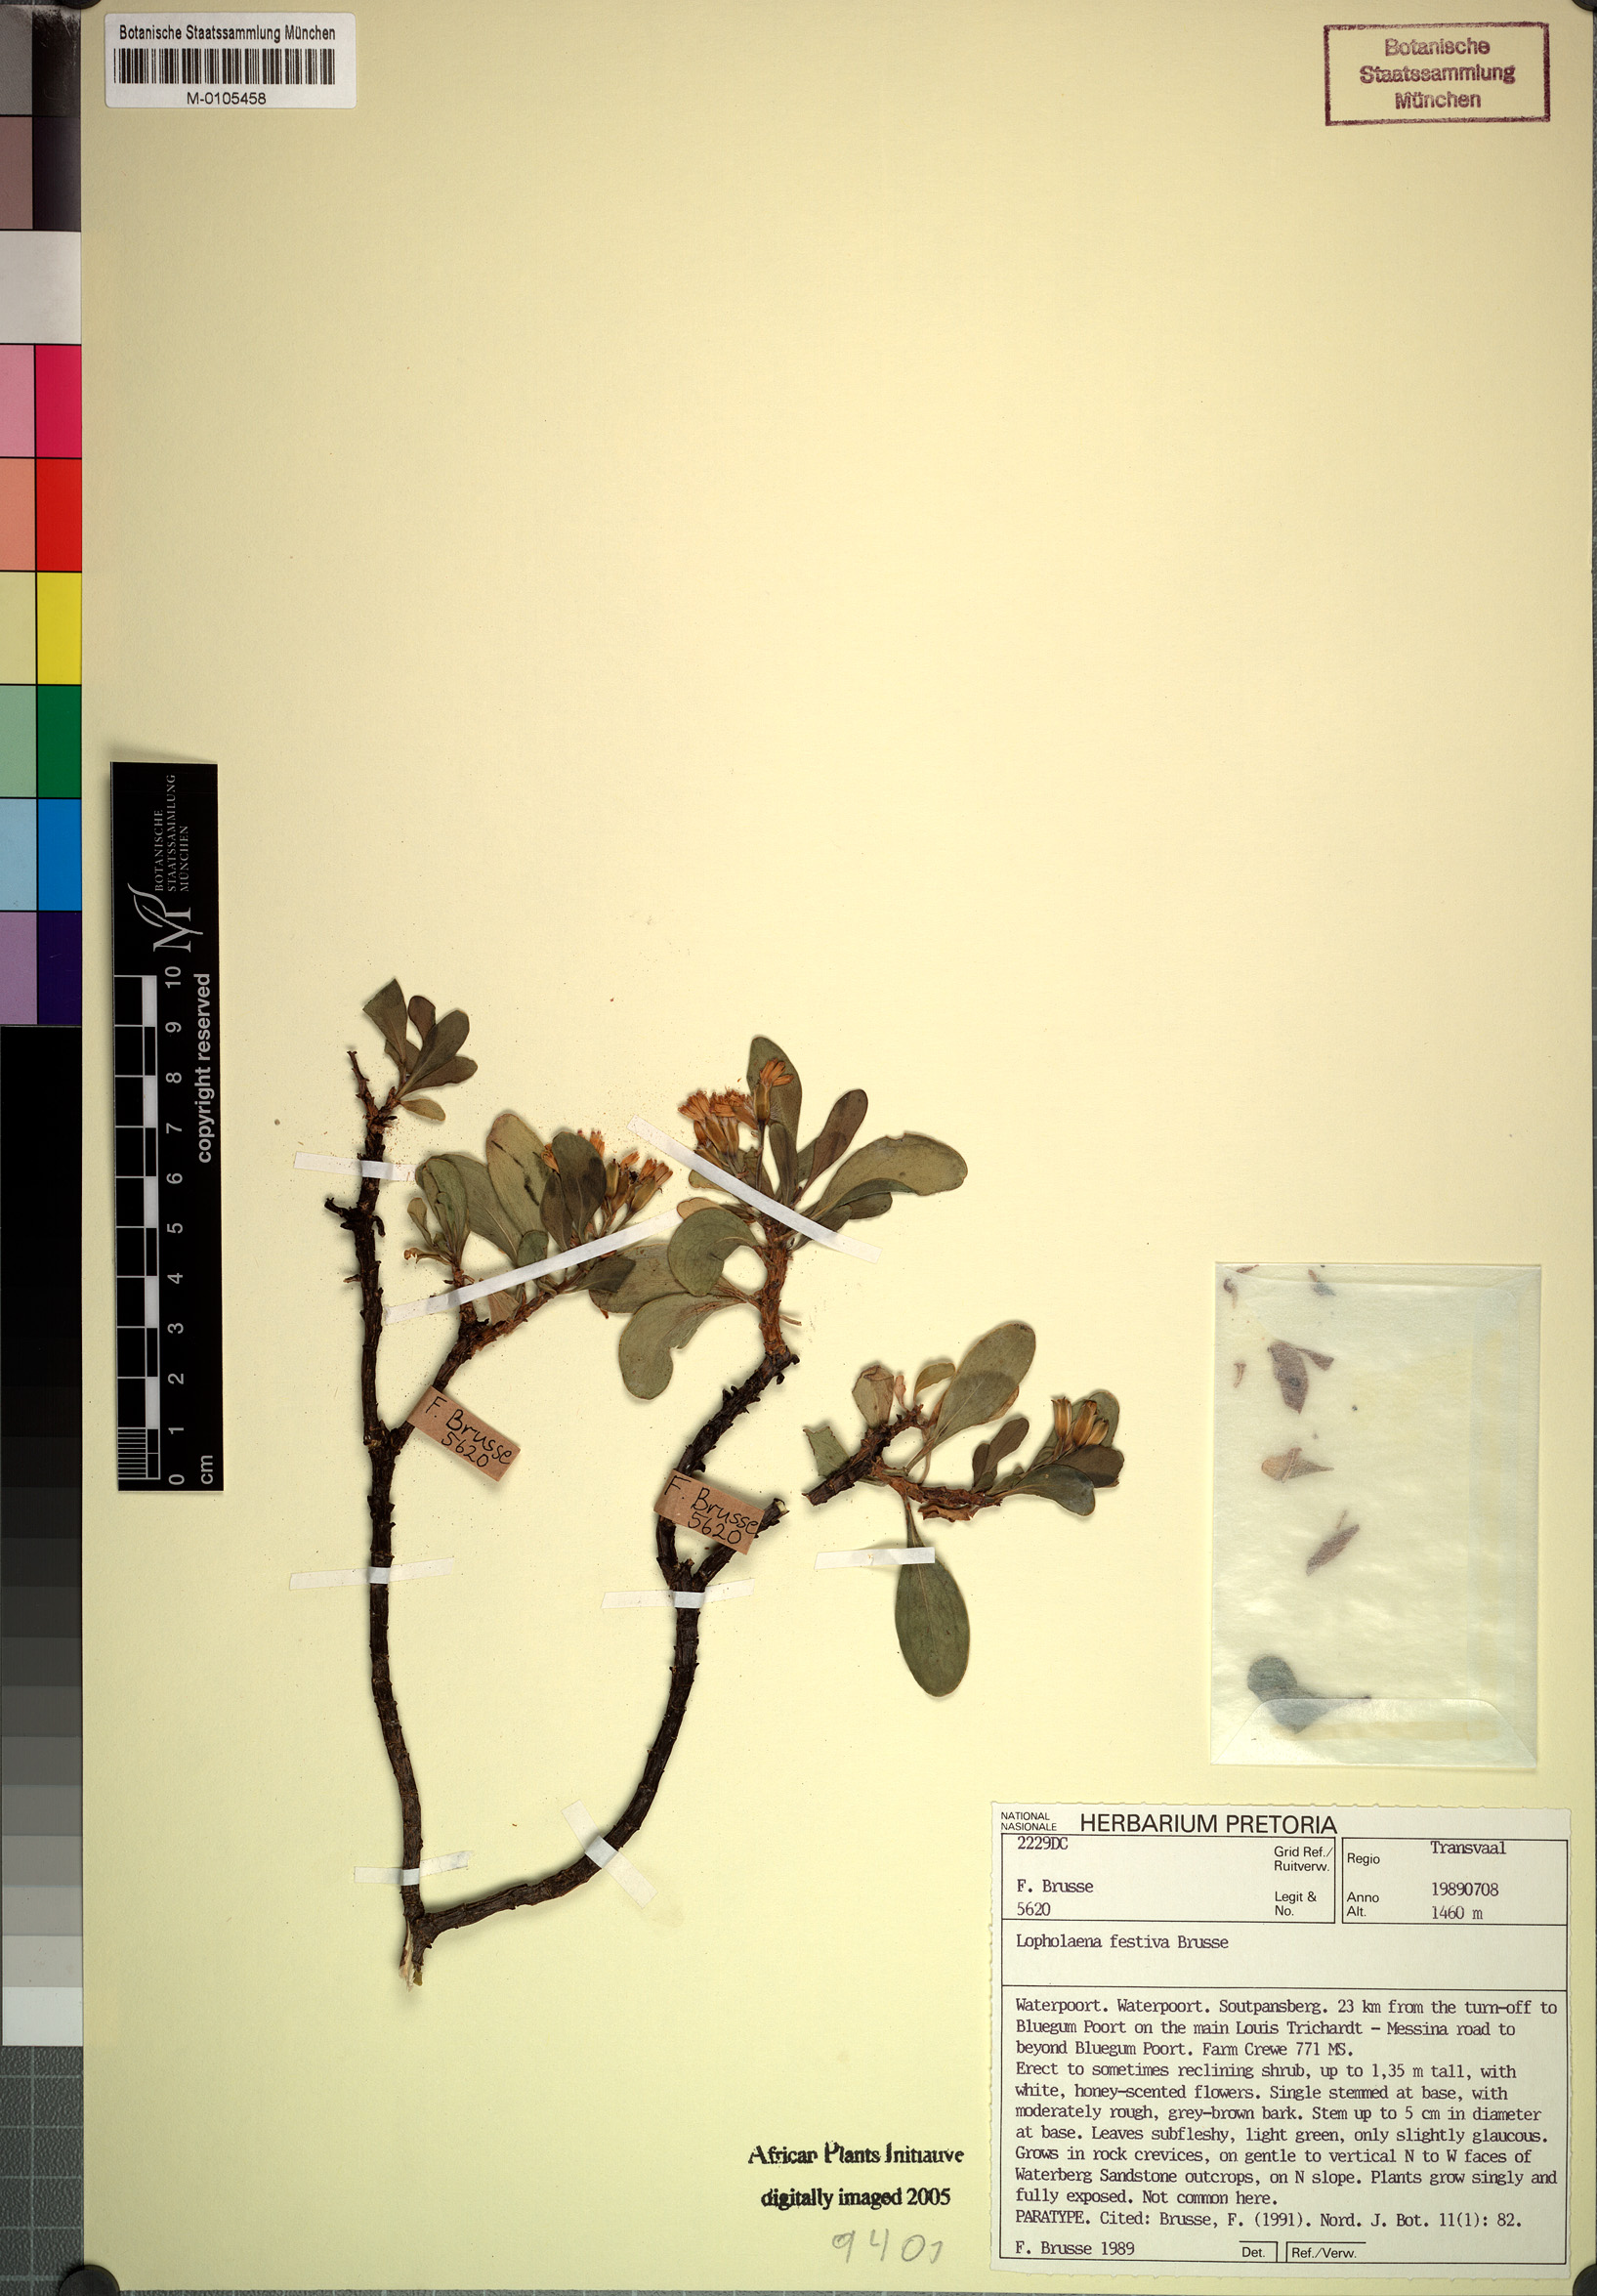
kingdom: Plantae
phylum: Tracheophyta
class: Magnoliopsida
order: Asterales
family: Asteraceae
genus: Lopholaena
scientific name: Lopholaena festiva
